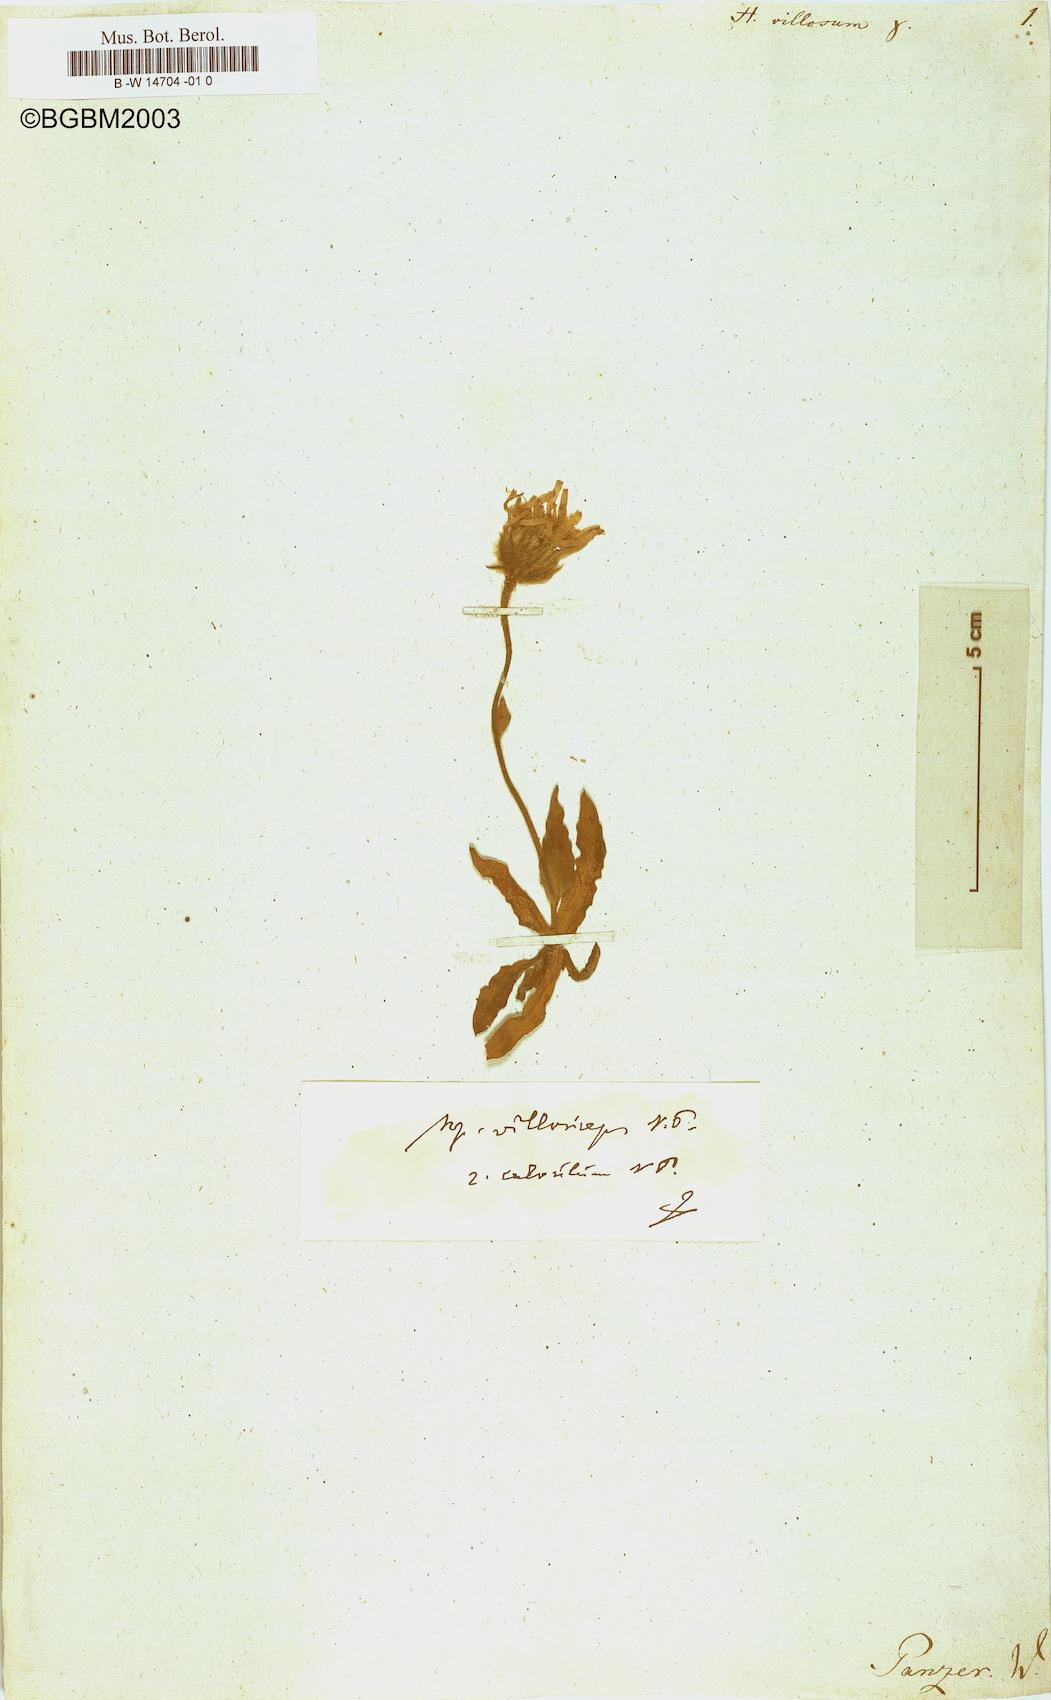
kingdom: Plantae
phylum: Tracheophyta
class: Magnoliopsida
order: Asterales
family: Asteraceae
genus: Hieracium
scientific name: Hieracium villosum
